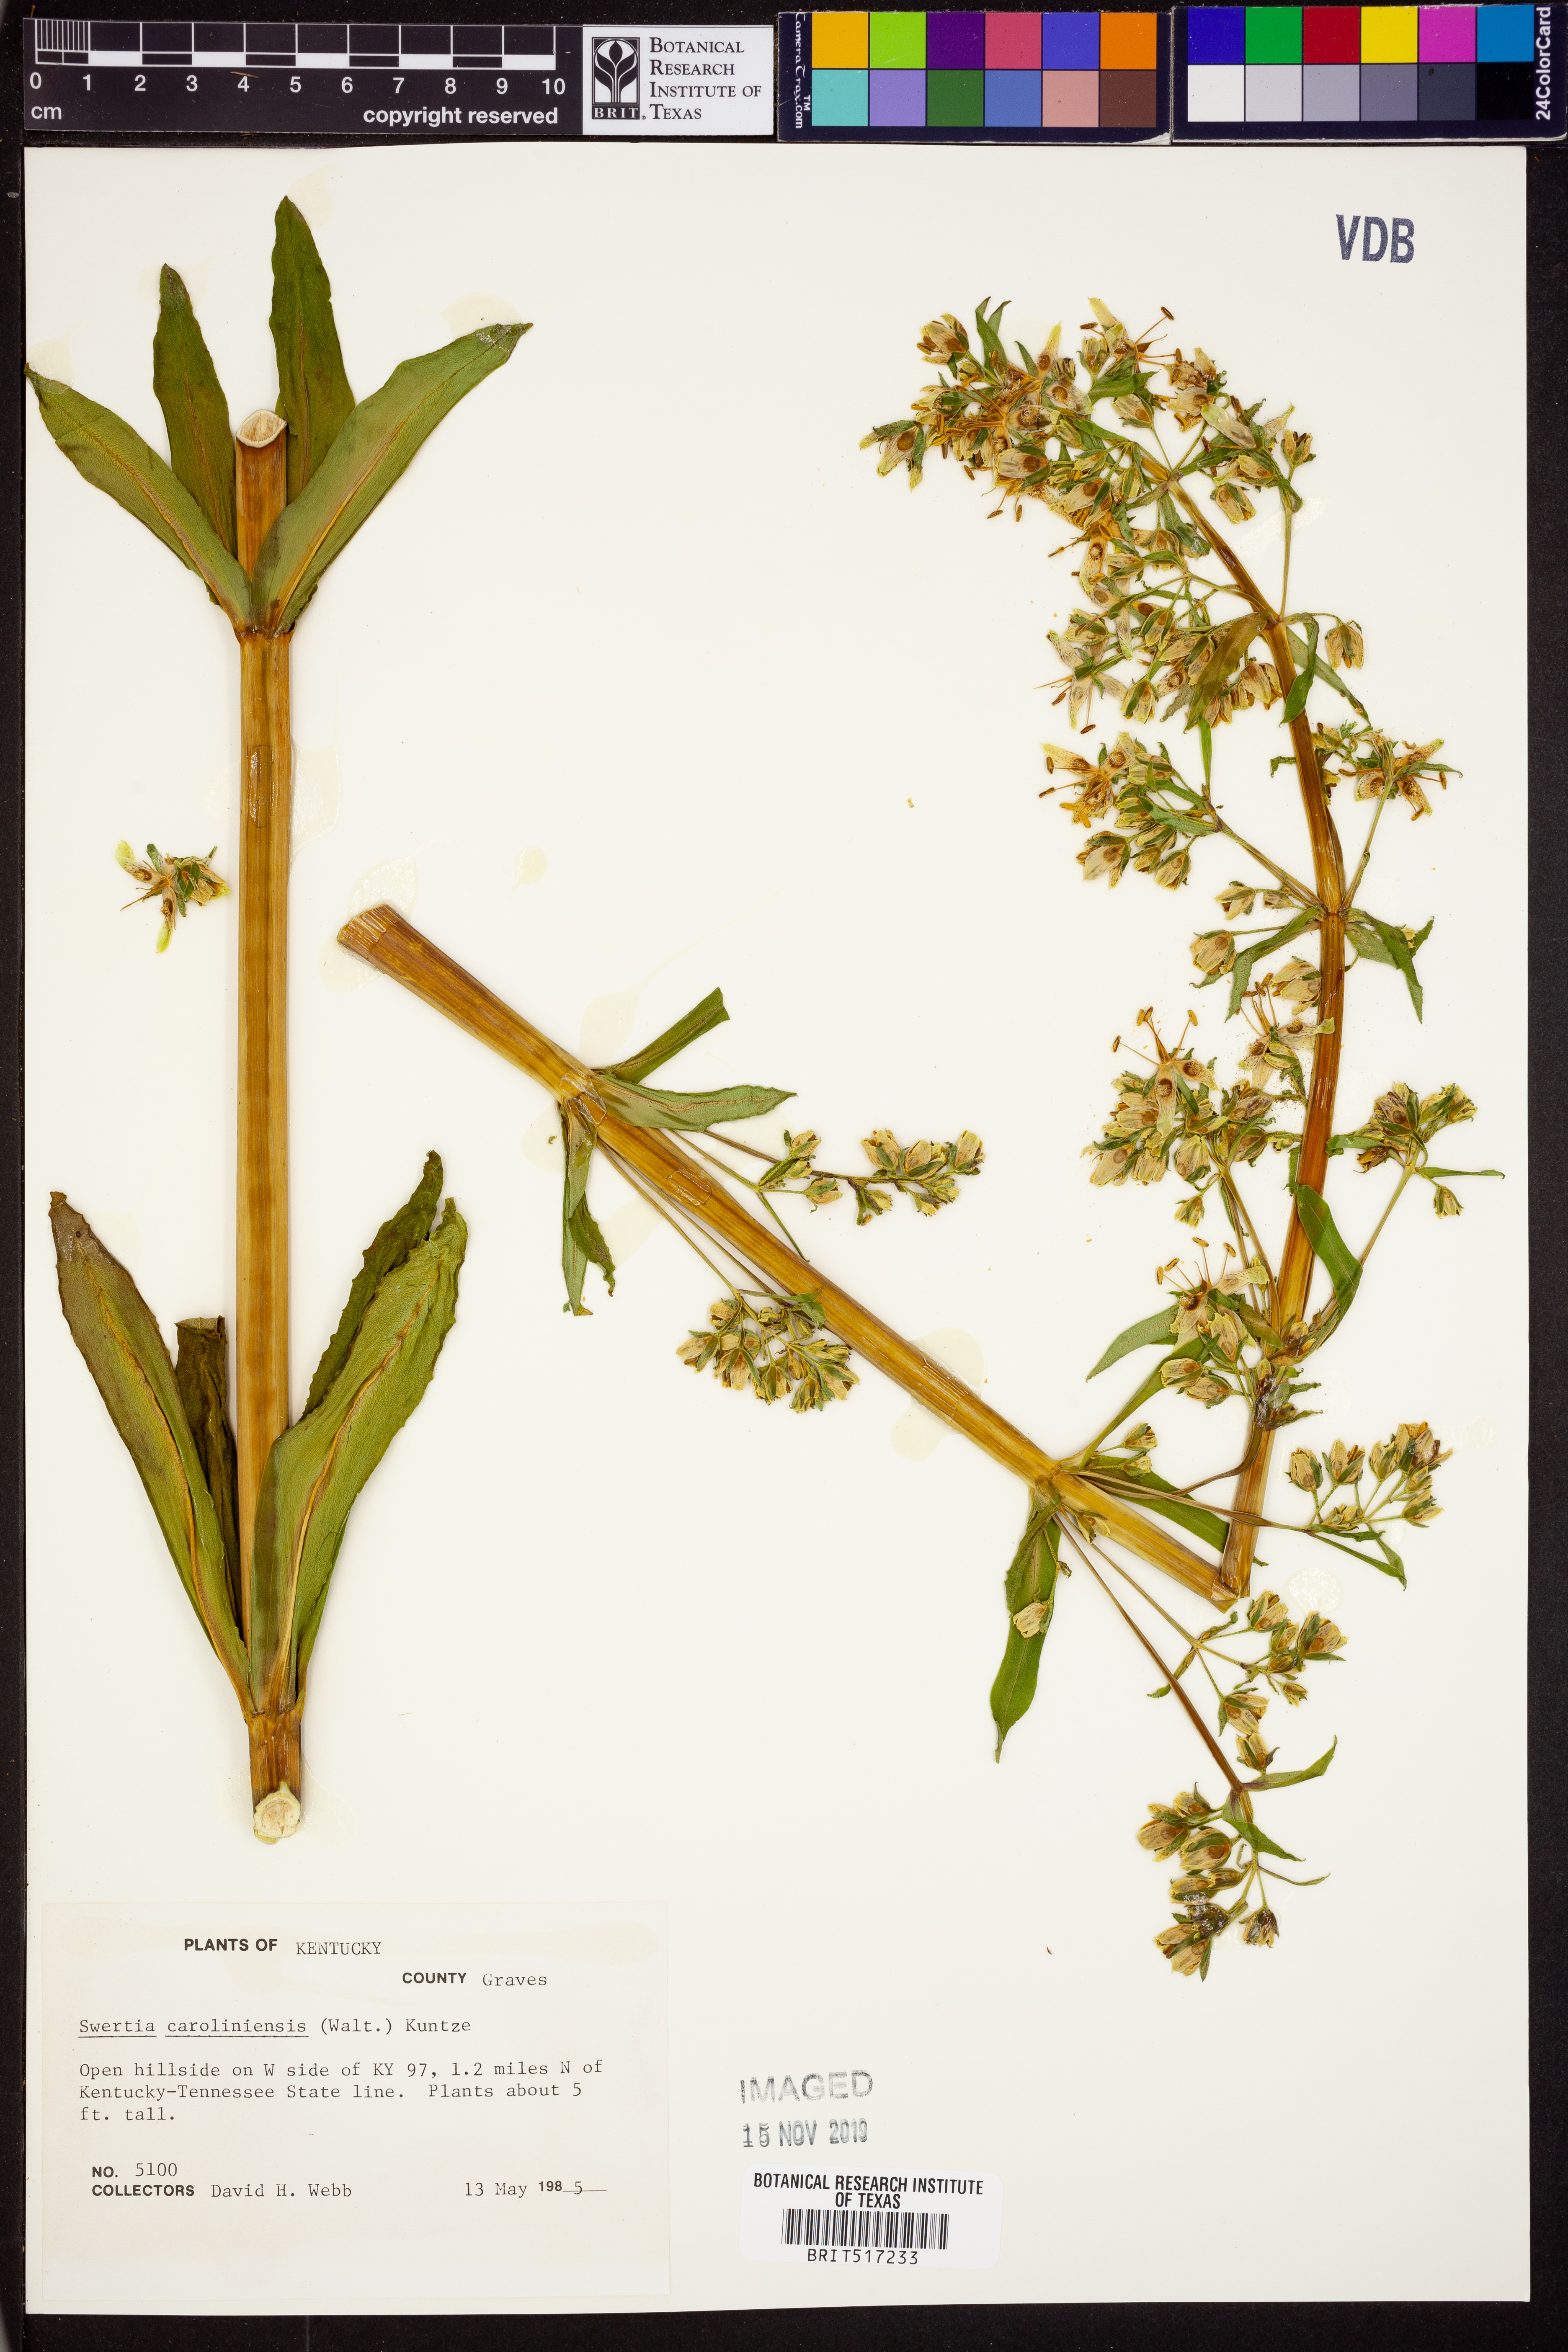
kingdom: Plantae
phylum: Tracheophyta
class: Magnoliopsida
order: Gentianales
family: Gentianaceae
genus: Frasera
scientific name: Frasera carolinensis
